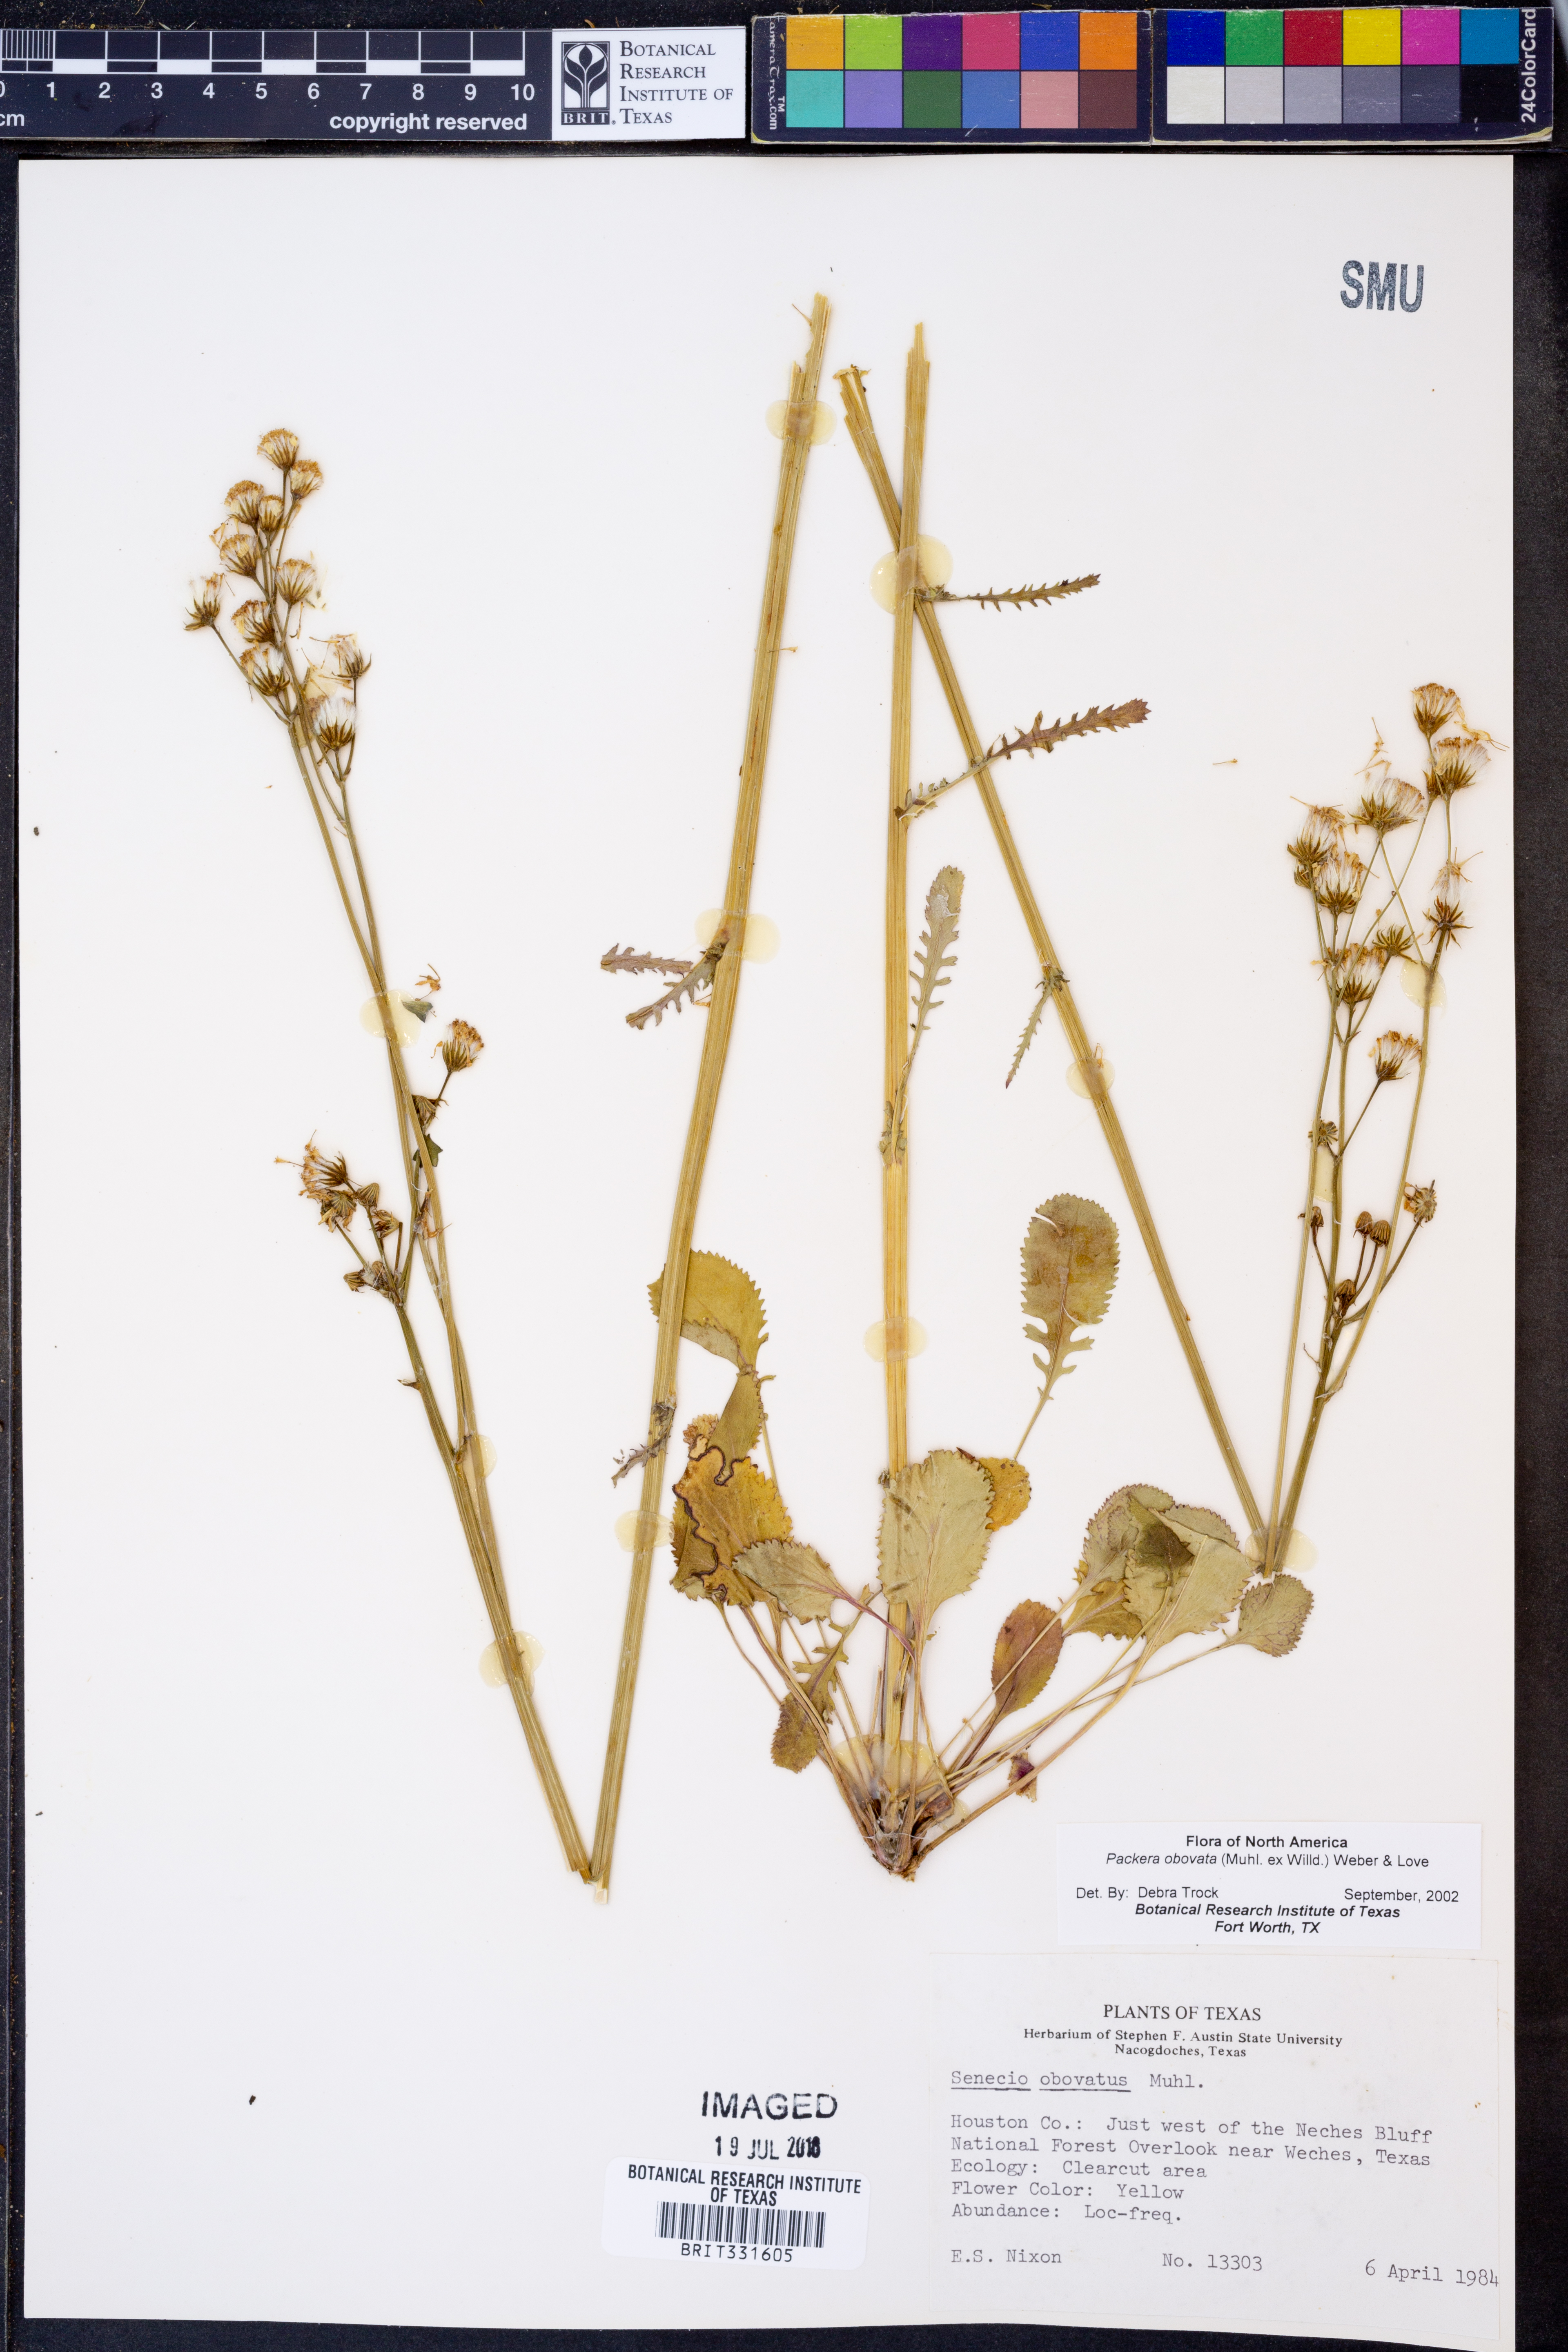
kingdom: Plantae
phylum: Tracheophyta
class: Magnoliopsida
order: Asterales
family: Asteraceae
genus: Packera
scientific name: Packera obovata
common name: Round-leaf ragwort
